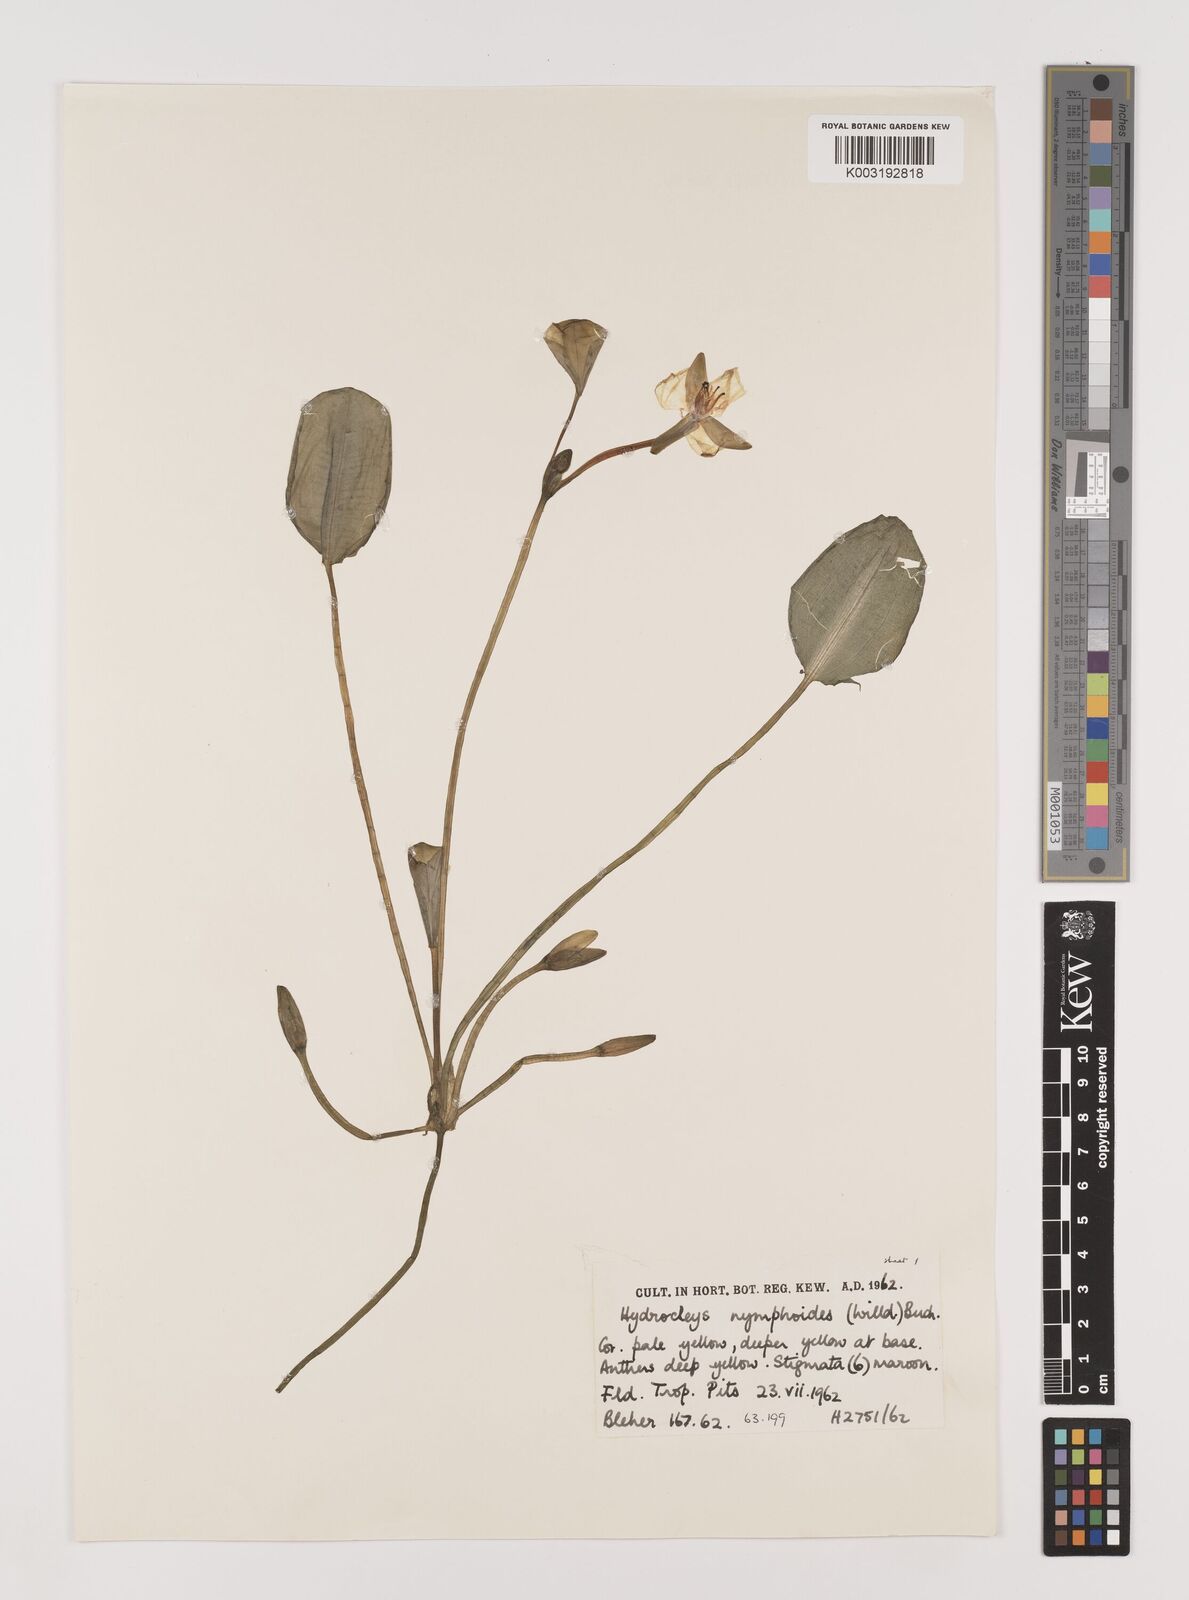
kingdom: Plantae
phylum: Tracheophyta
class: Liliopsida
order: Alismatales
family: Alismataceae
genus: Hydrocleys
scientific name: Hydrocleys nymphoides
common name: Water-poppy
